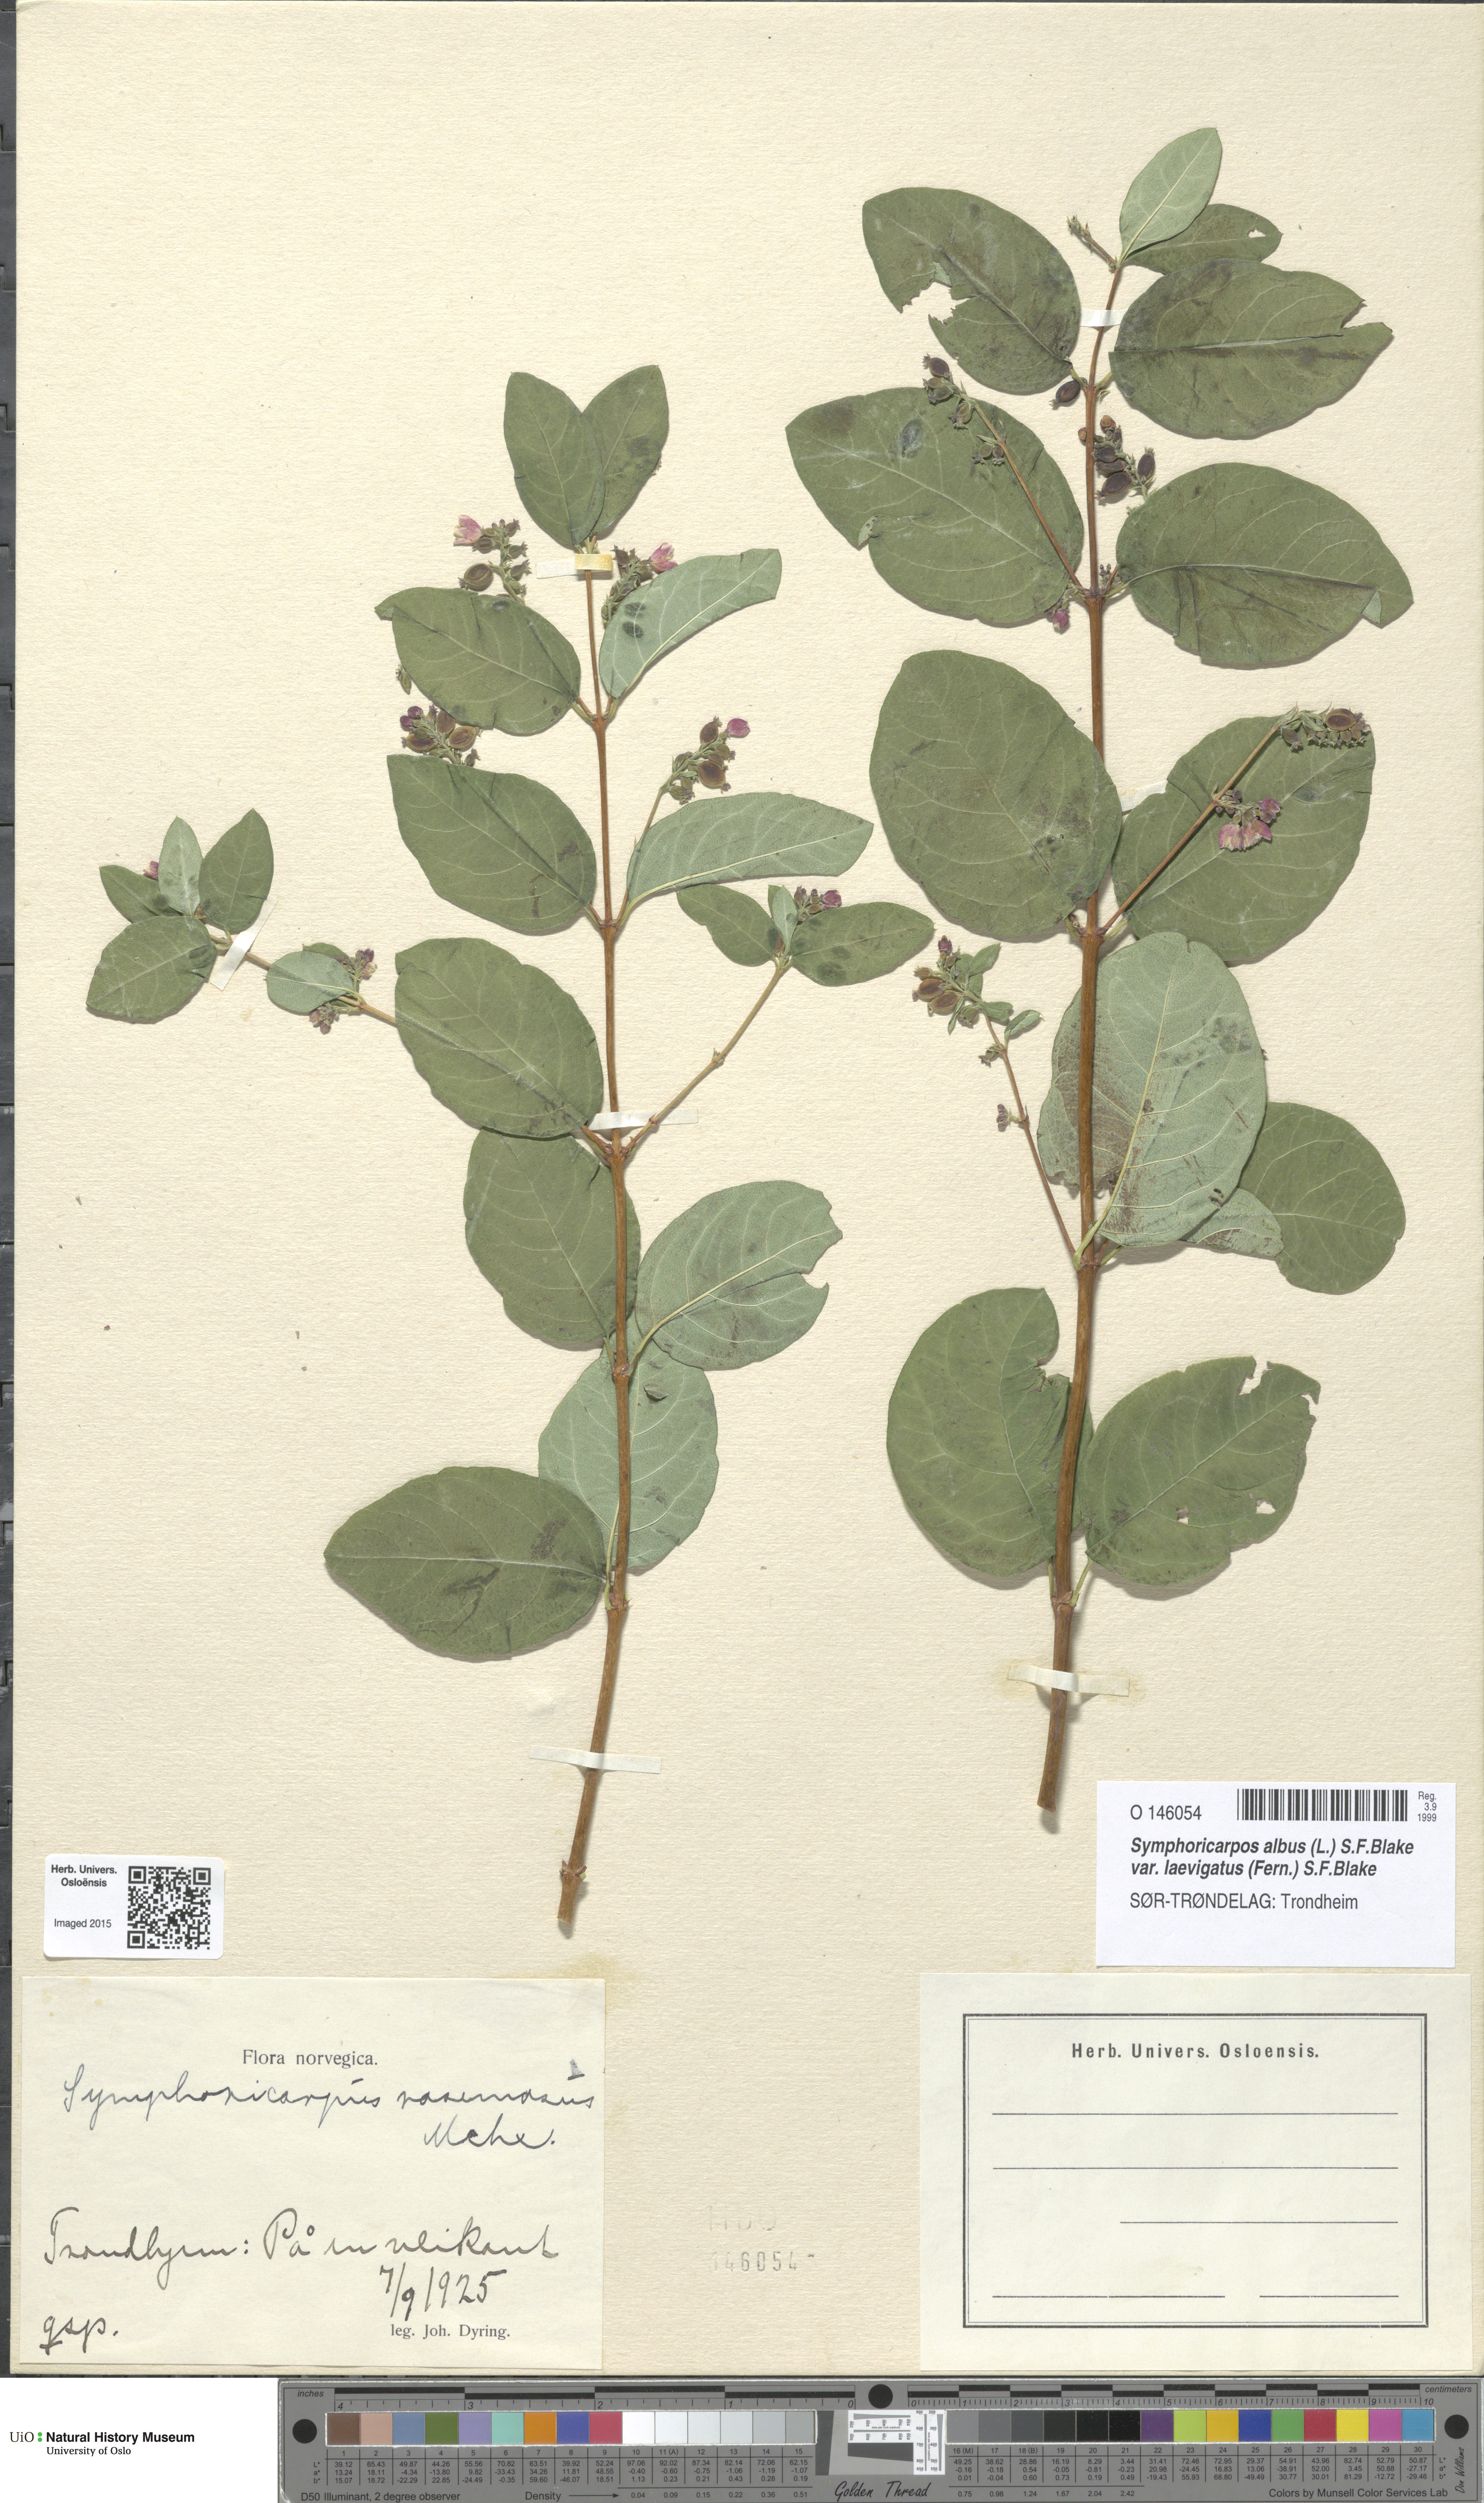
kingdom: Plantae
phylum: Tracheophyta
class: Magnoliopsida
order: Dipsacales
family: Caprifoliaceae
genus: Symphoricarpos
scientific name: Symphoricarpos albus
